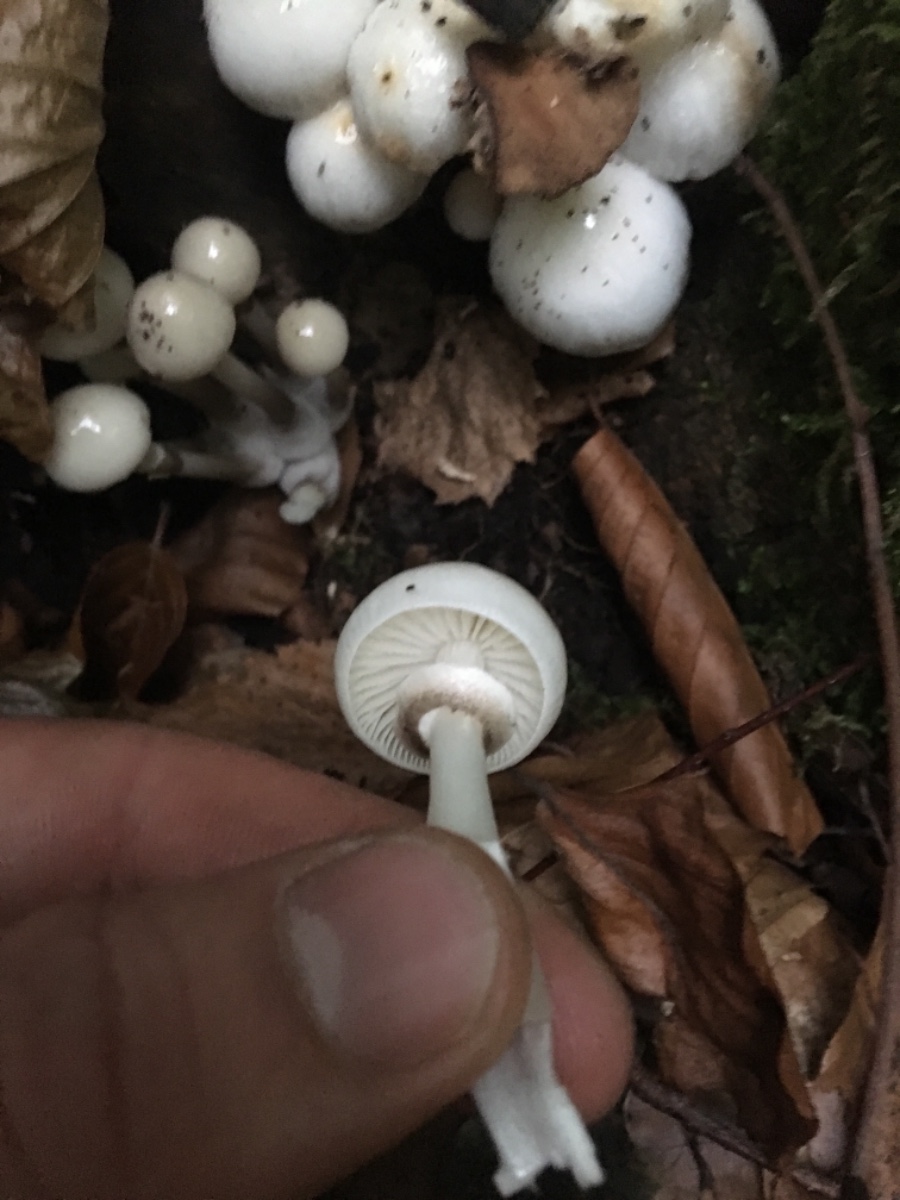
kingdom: Fungi
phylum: Basidiomycota
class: Agaricomycetes
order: Agaricales
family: Physalacriaceae
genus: Mucidula
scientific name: Mucidula mucida
